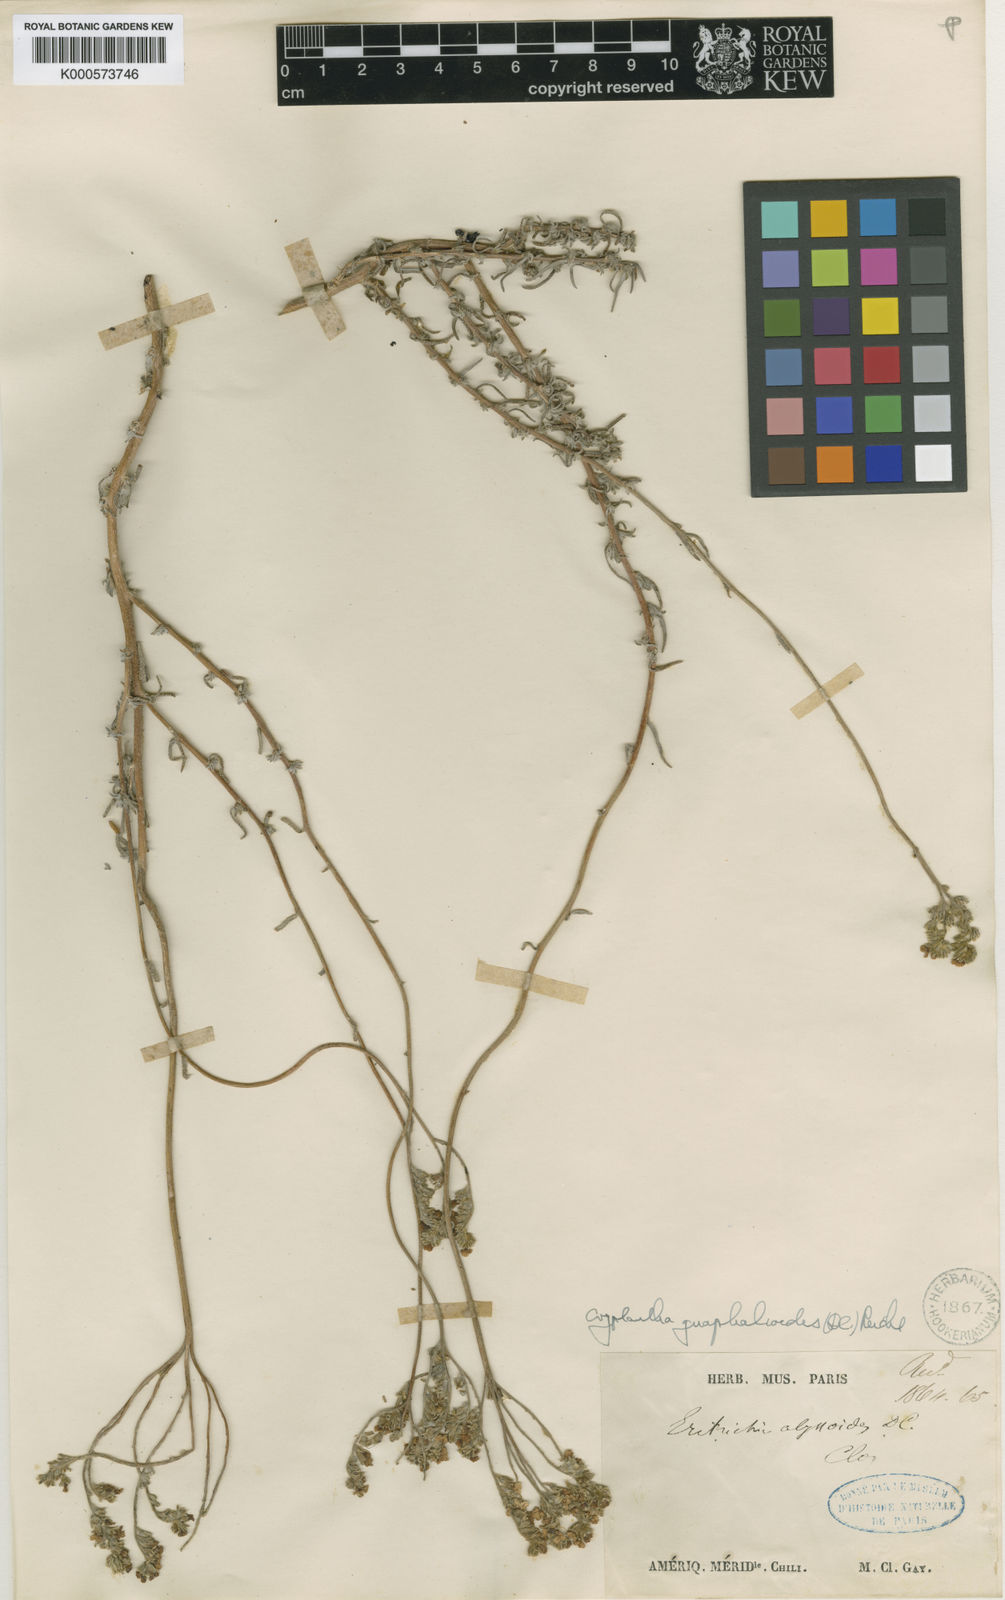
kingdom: Plantae
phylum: Tracheophyta
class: Magnoliopsida
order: Boraginales
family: Boraginaceae
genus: Cryptantha
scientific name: Cryptantha
